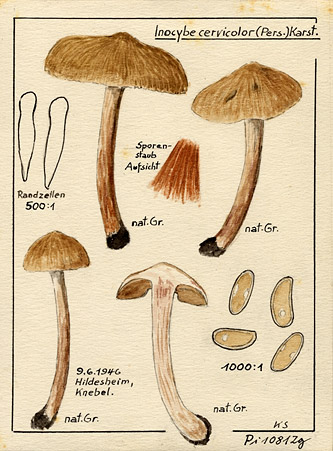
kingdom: Fungi
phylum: Basidiomycota
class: Agaricomycetes
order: Agaricales
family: Inocybaceae
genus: Inosperma
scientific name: Inosperma cervicolor
